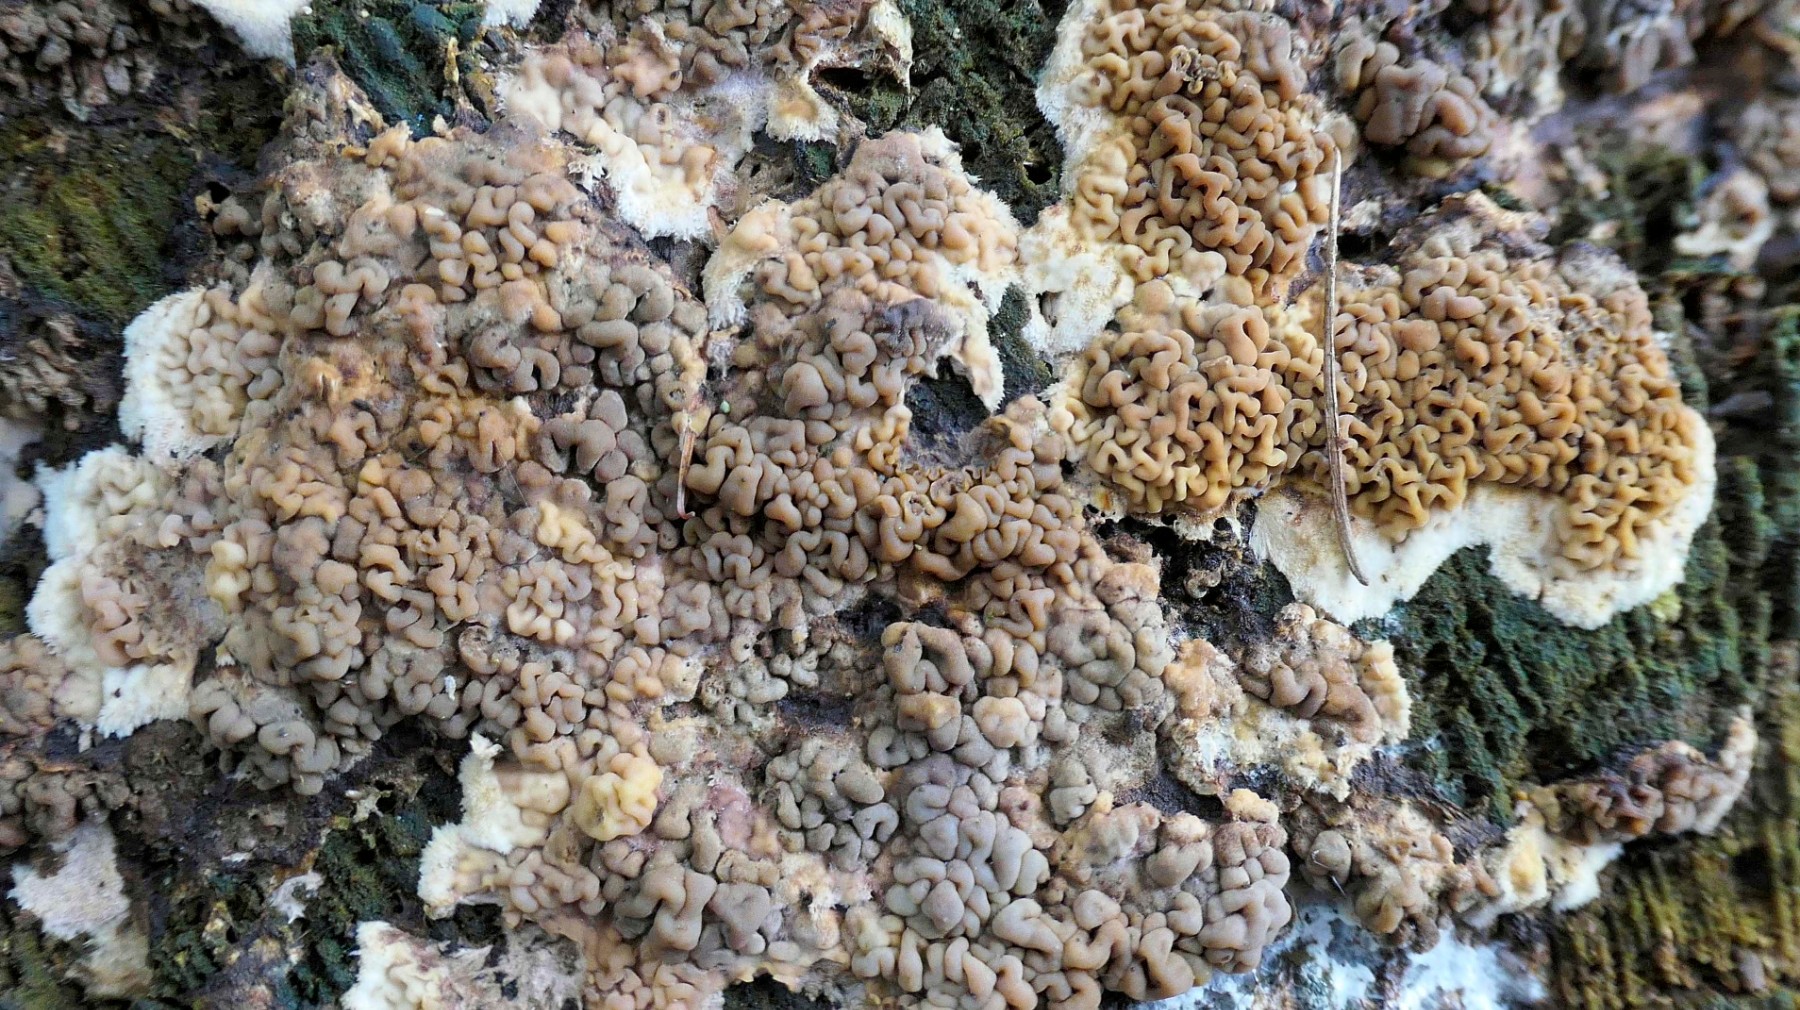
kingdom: Fungi
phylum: Basidiomycota
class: Agaricomycetes
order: Boletales
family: Serpulaceae
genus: Serpula
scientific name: Serpula himantioides
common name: tyndkødet hussvamp
